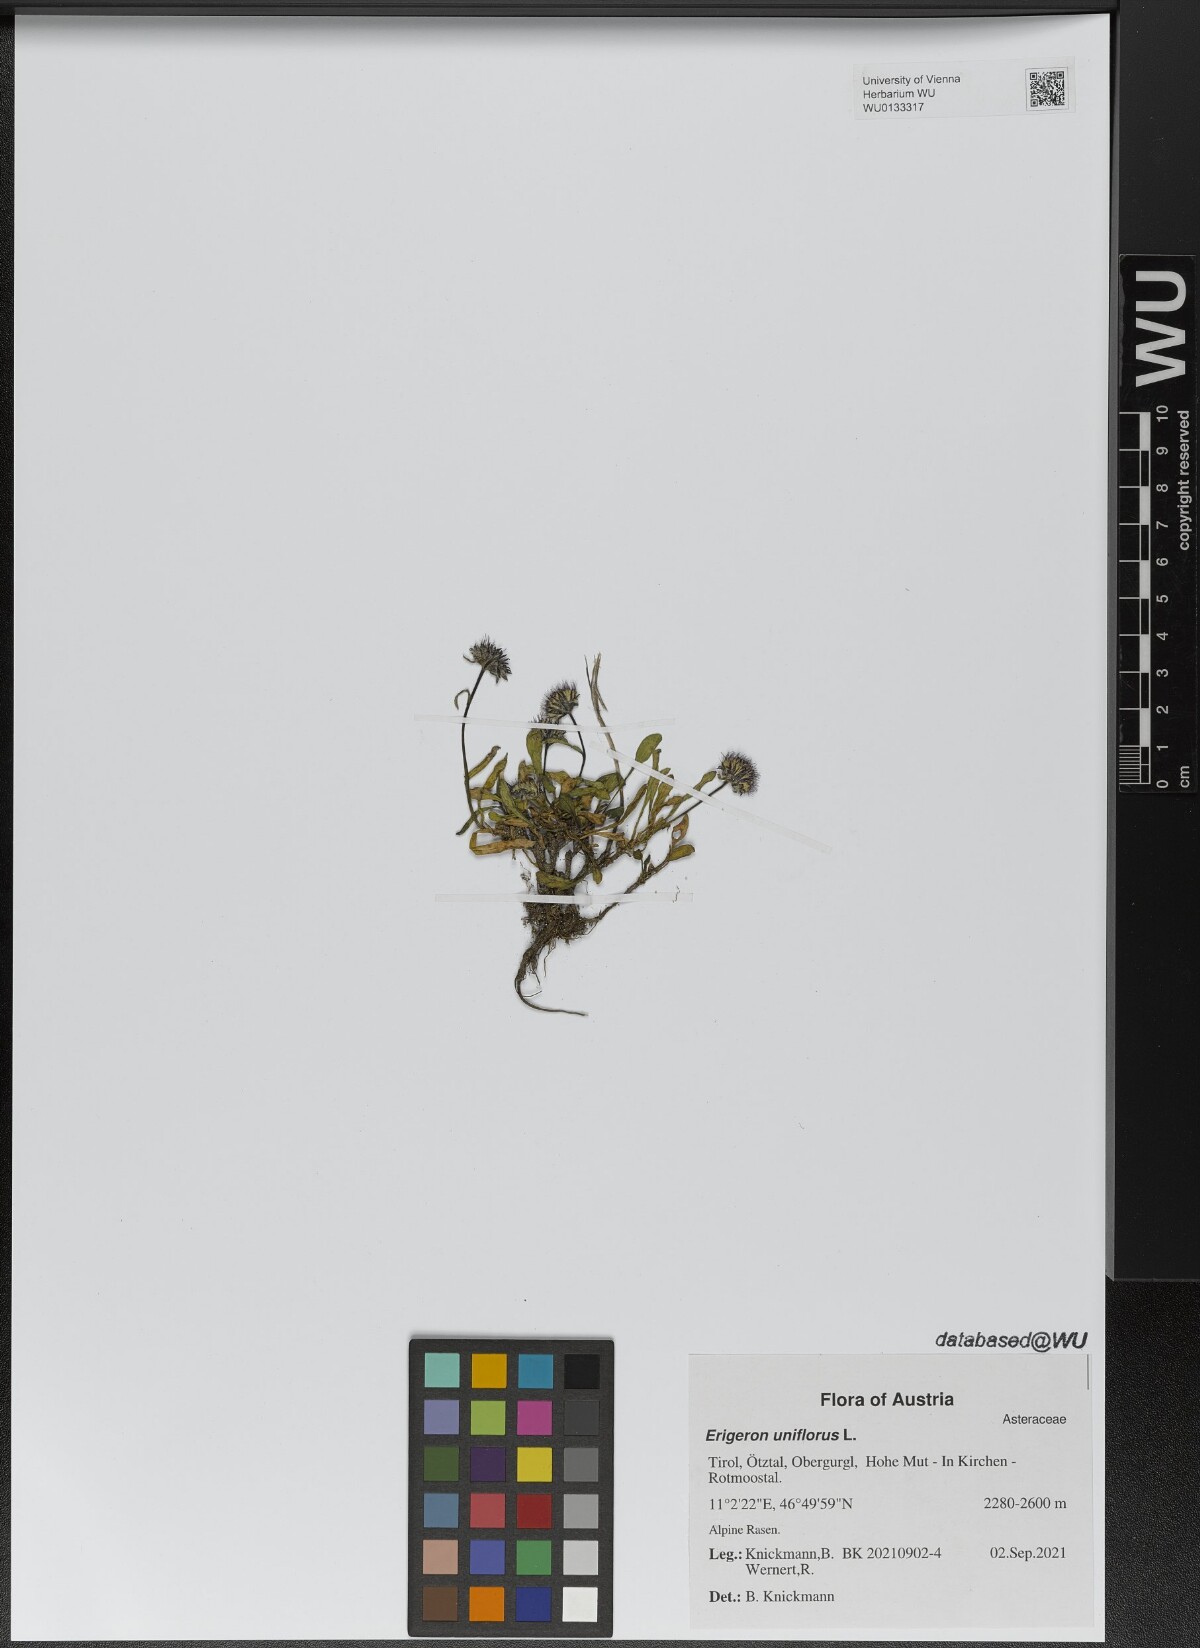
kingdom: Plantae
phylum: Tracheophyta
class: Magnoliopsida
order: Asterales
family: Asteraceae
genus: Erigeron
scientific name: Erigeron uniflorus
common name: Northern daisy
